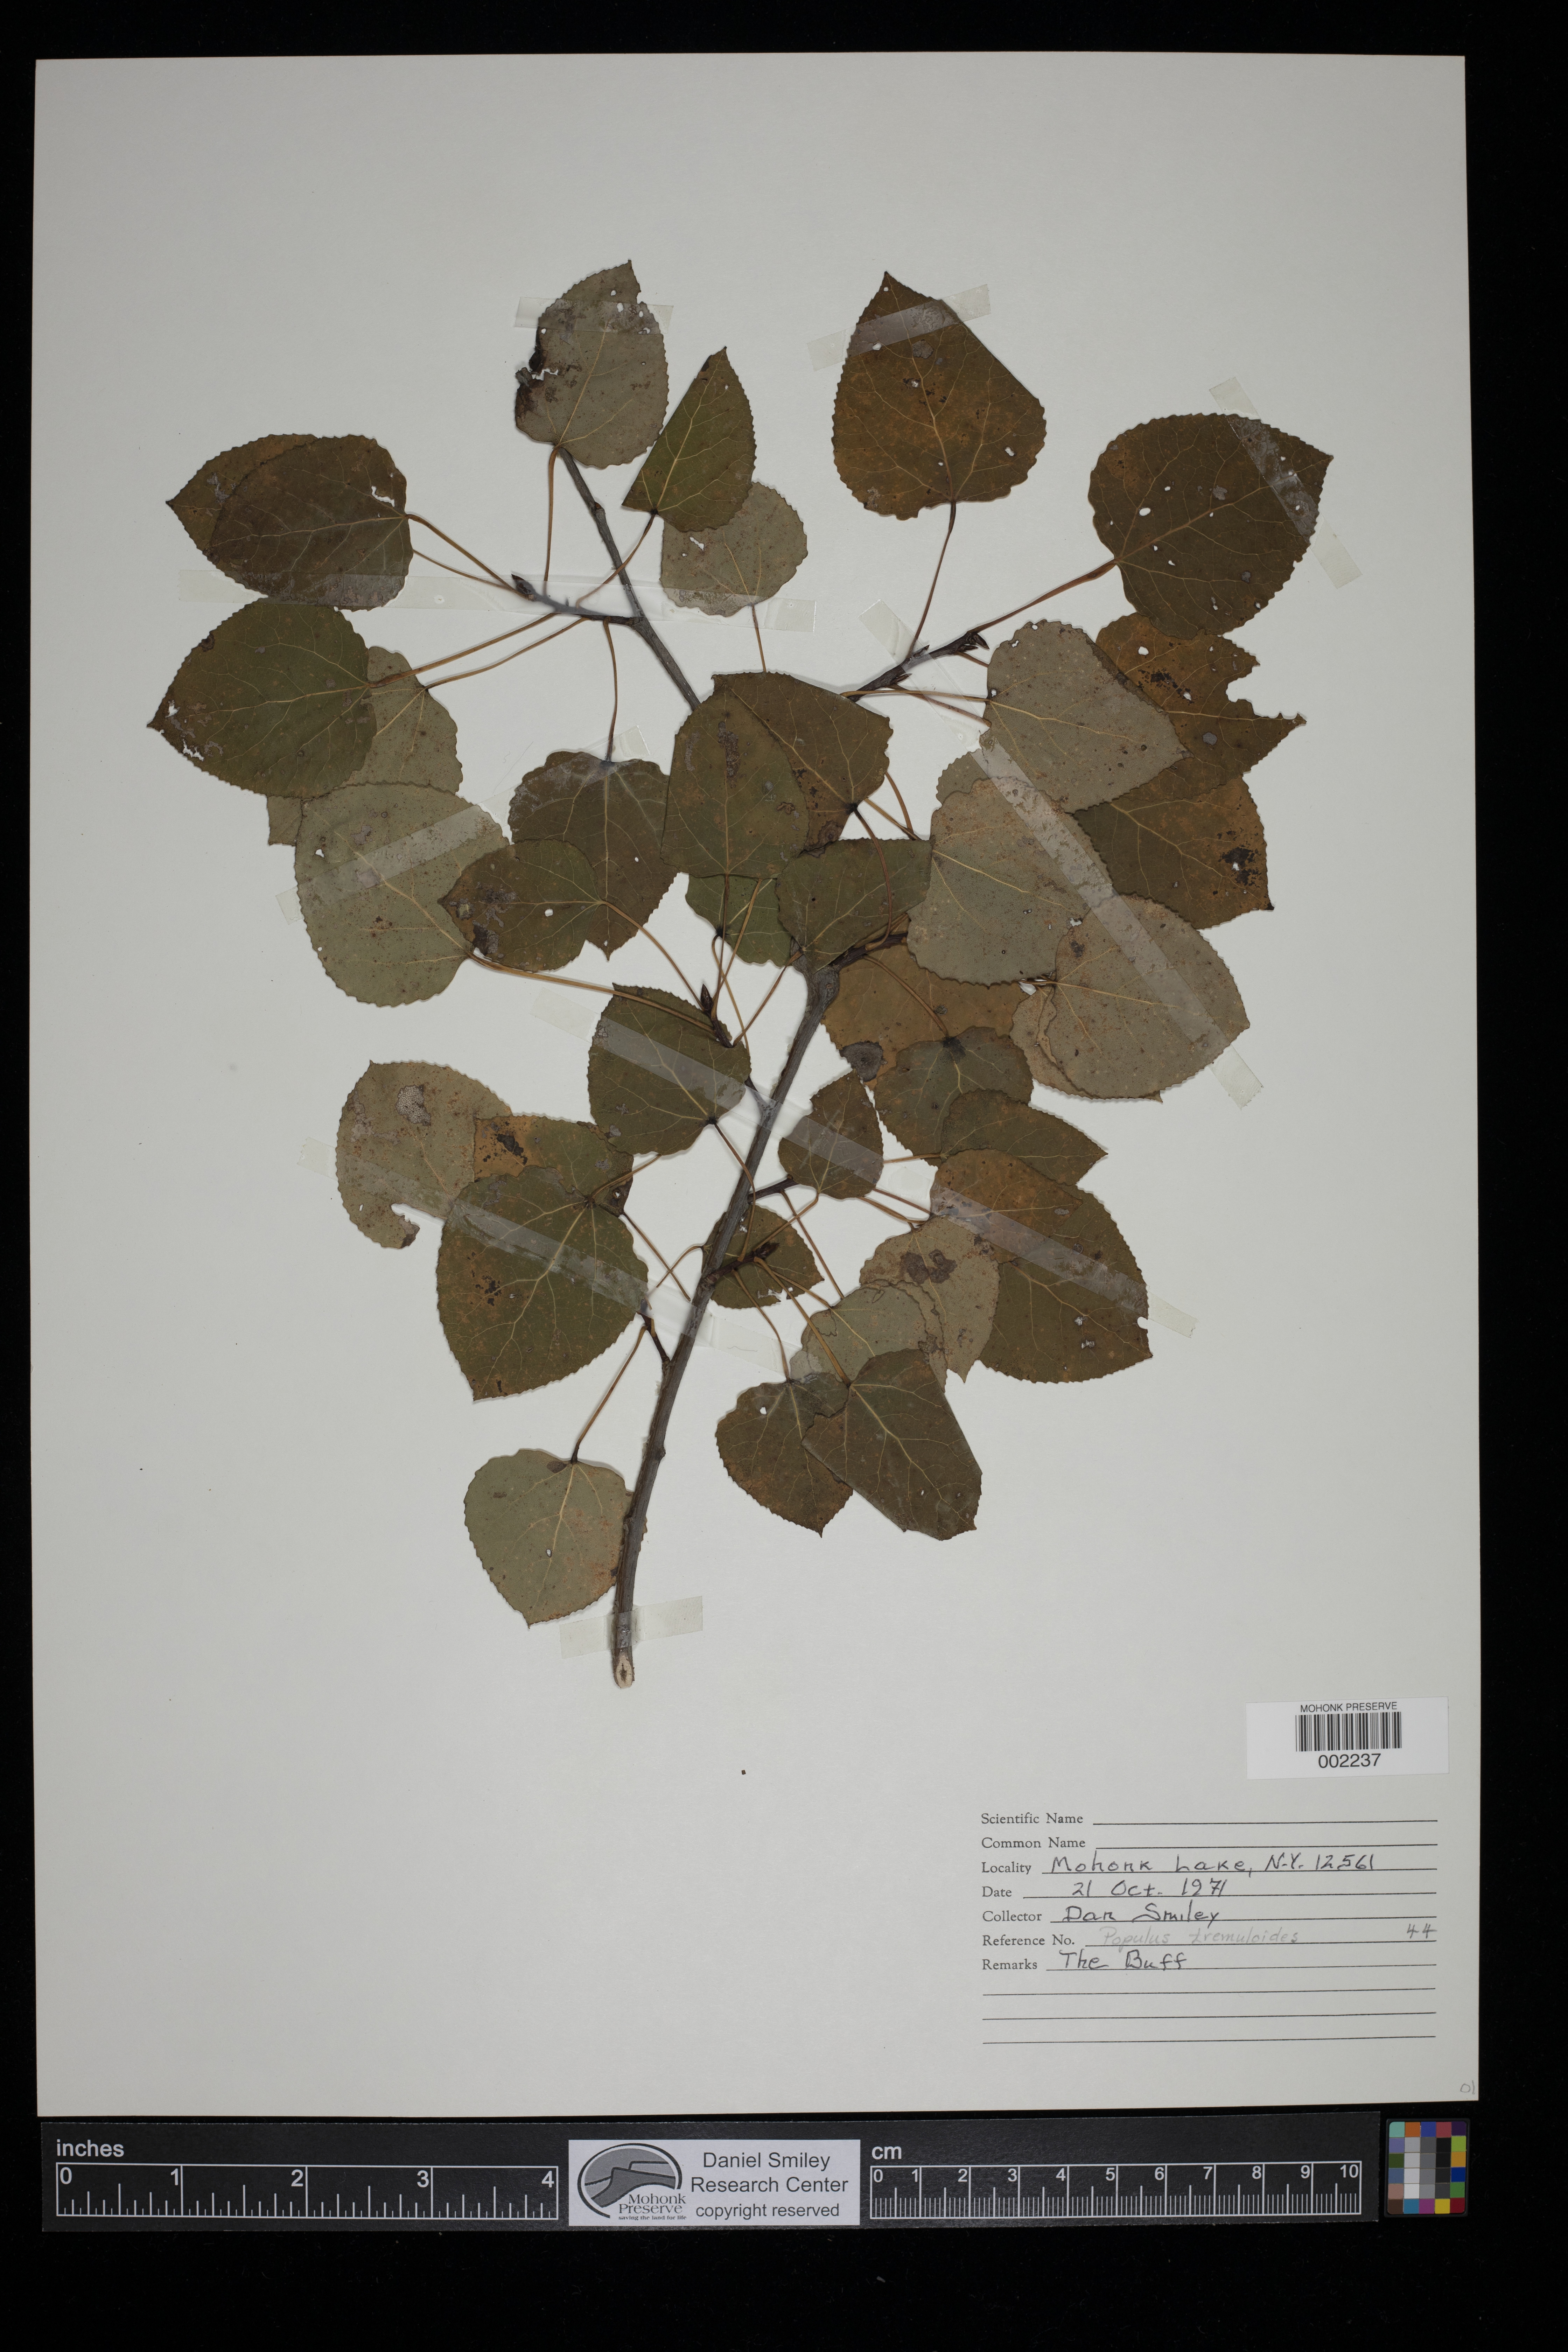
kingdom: Plantae
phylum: Tracheophyta
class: Magnoliopsida
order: Malpighiales
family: Salicaceae
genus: Populus
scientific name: Populus tremuloides
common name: Quaking aspen
